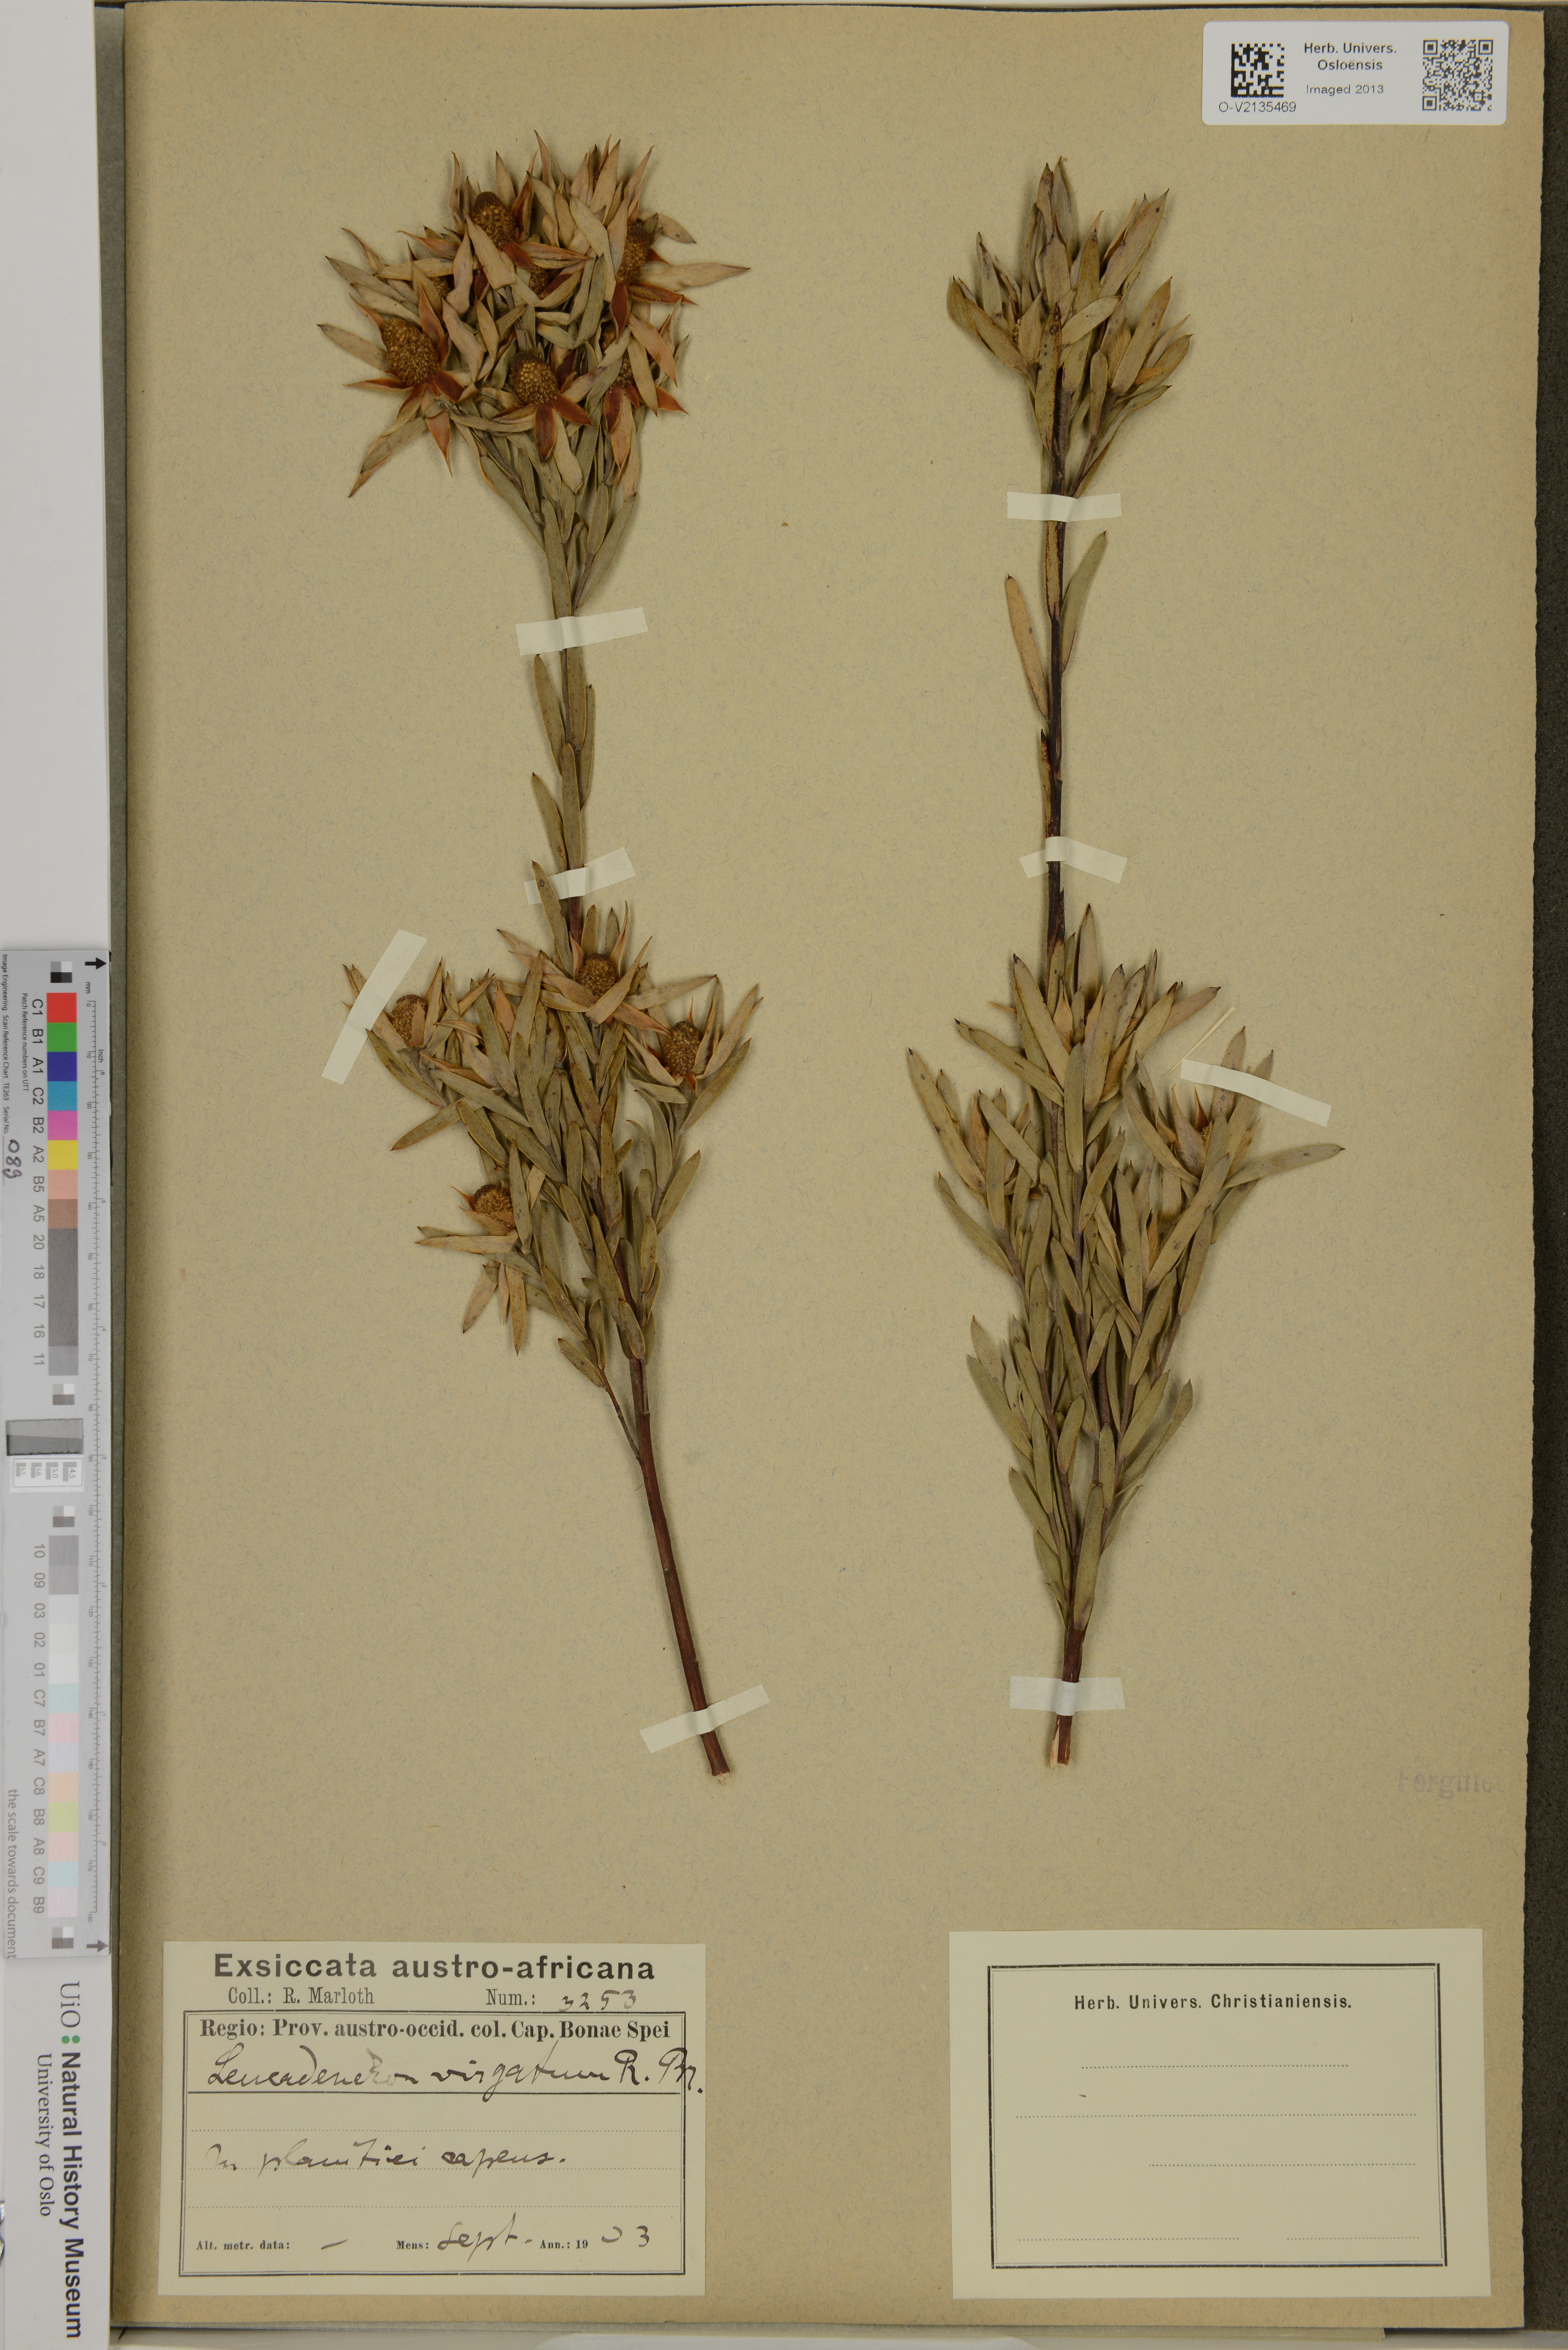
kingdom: Plantae
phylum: Tracheophyta
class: Magnoliopsida
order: Proteales
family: Proteaceae
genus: Leucadendron
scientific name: Leucadendron
